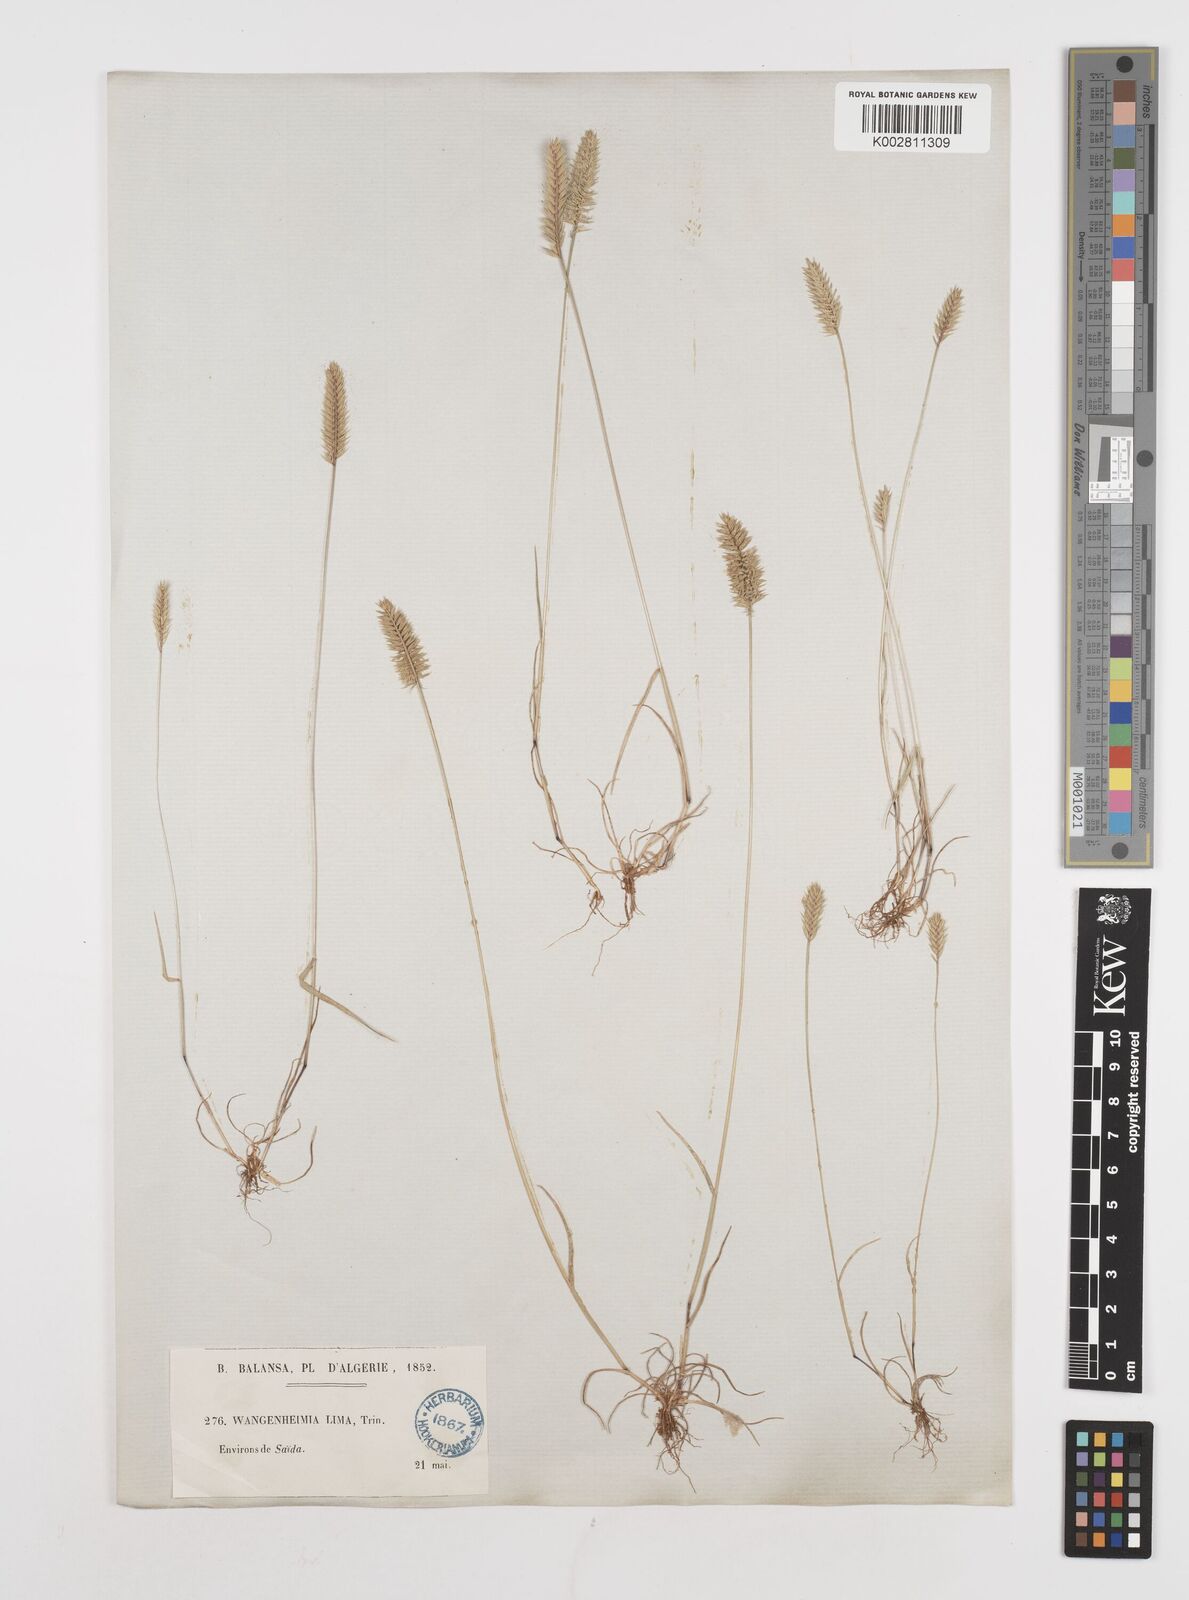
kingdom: Plantae
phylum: Tracheophyta
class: Liliopsida
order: Poales
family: Poaceae
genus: Wangenheimia
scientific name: Wangenheimia lima
